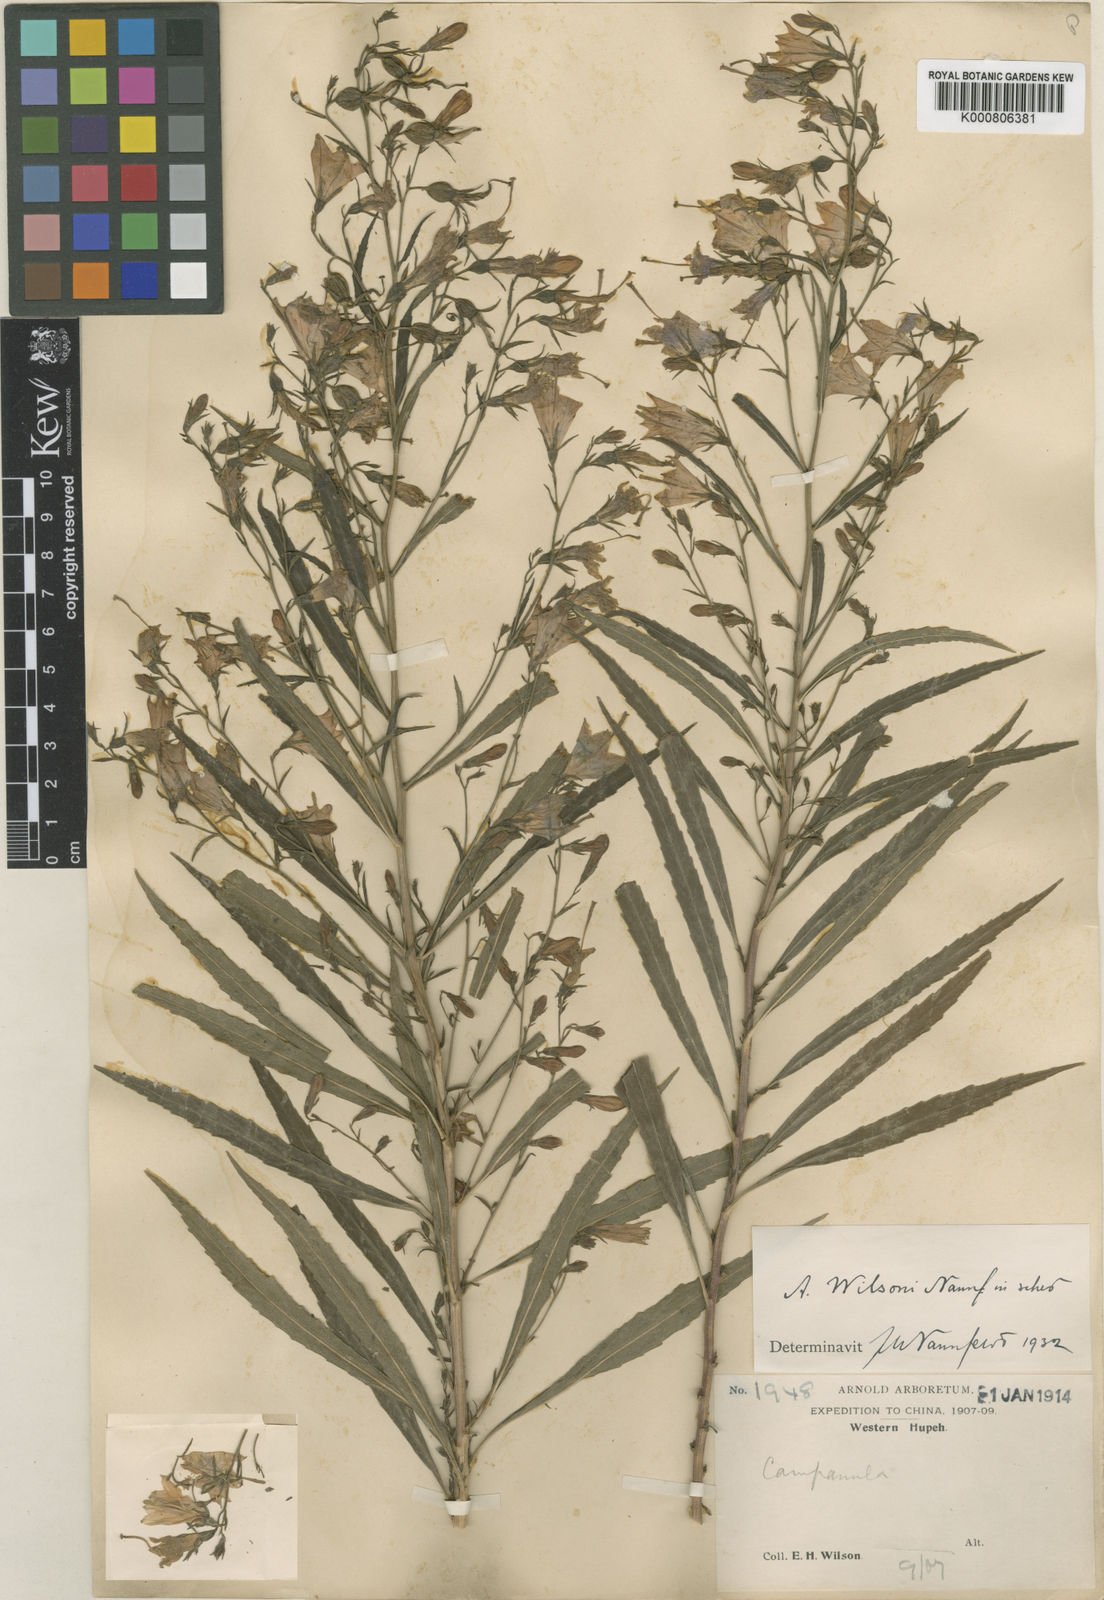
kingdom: Plantae
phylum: Tracheophyta
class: Magnoliopsida
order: Asterales
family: Campanulaceae
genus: Adenophora
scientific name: Adenophora wilsonii
